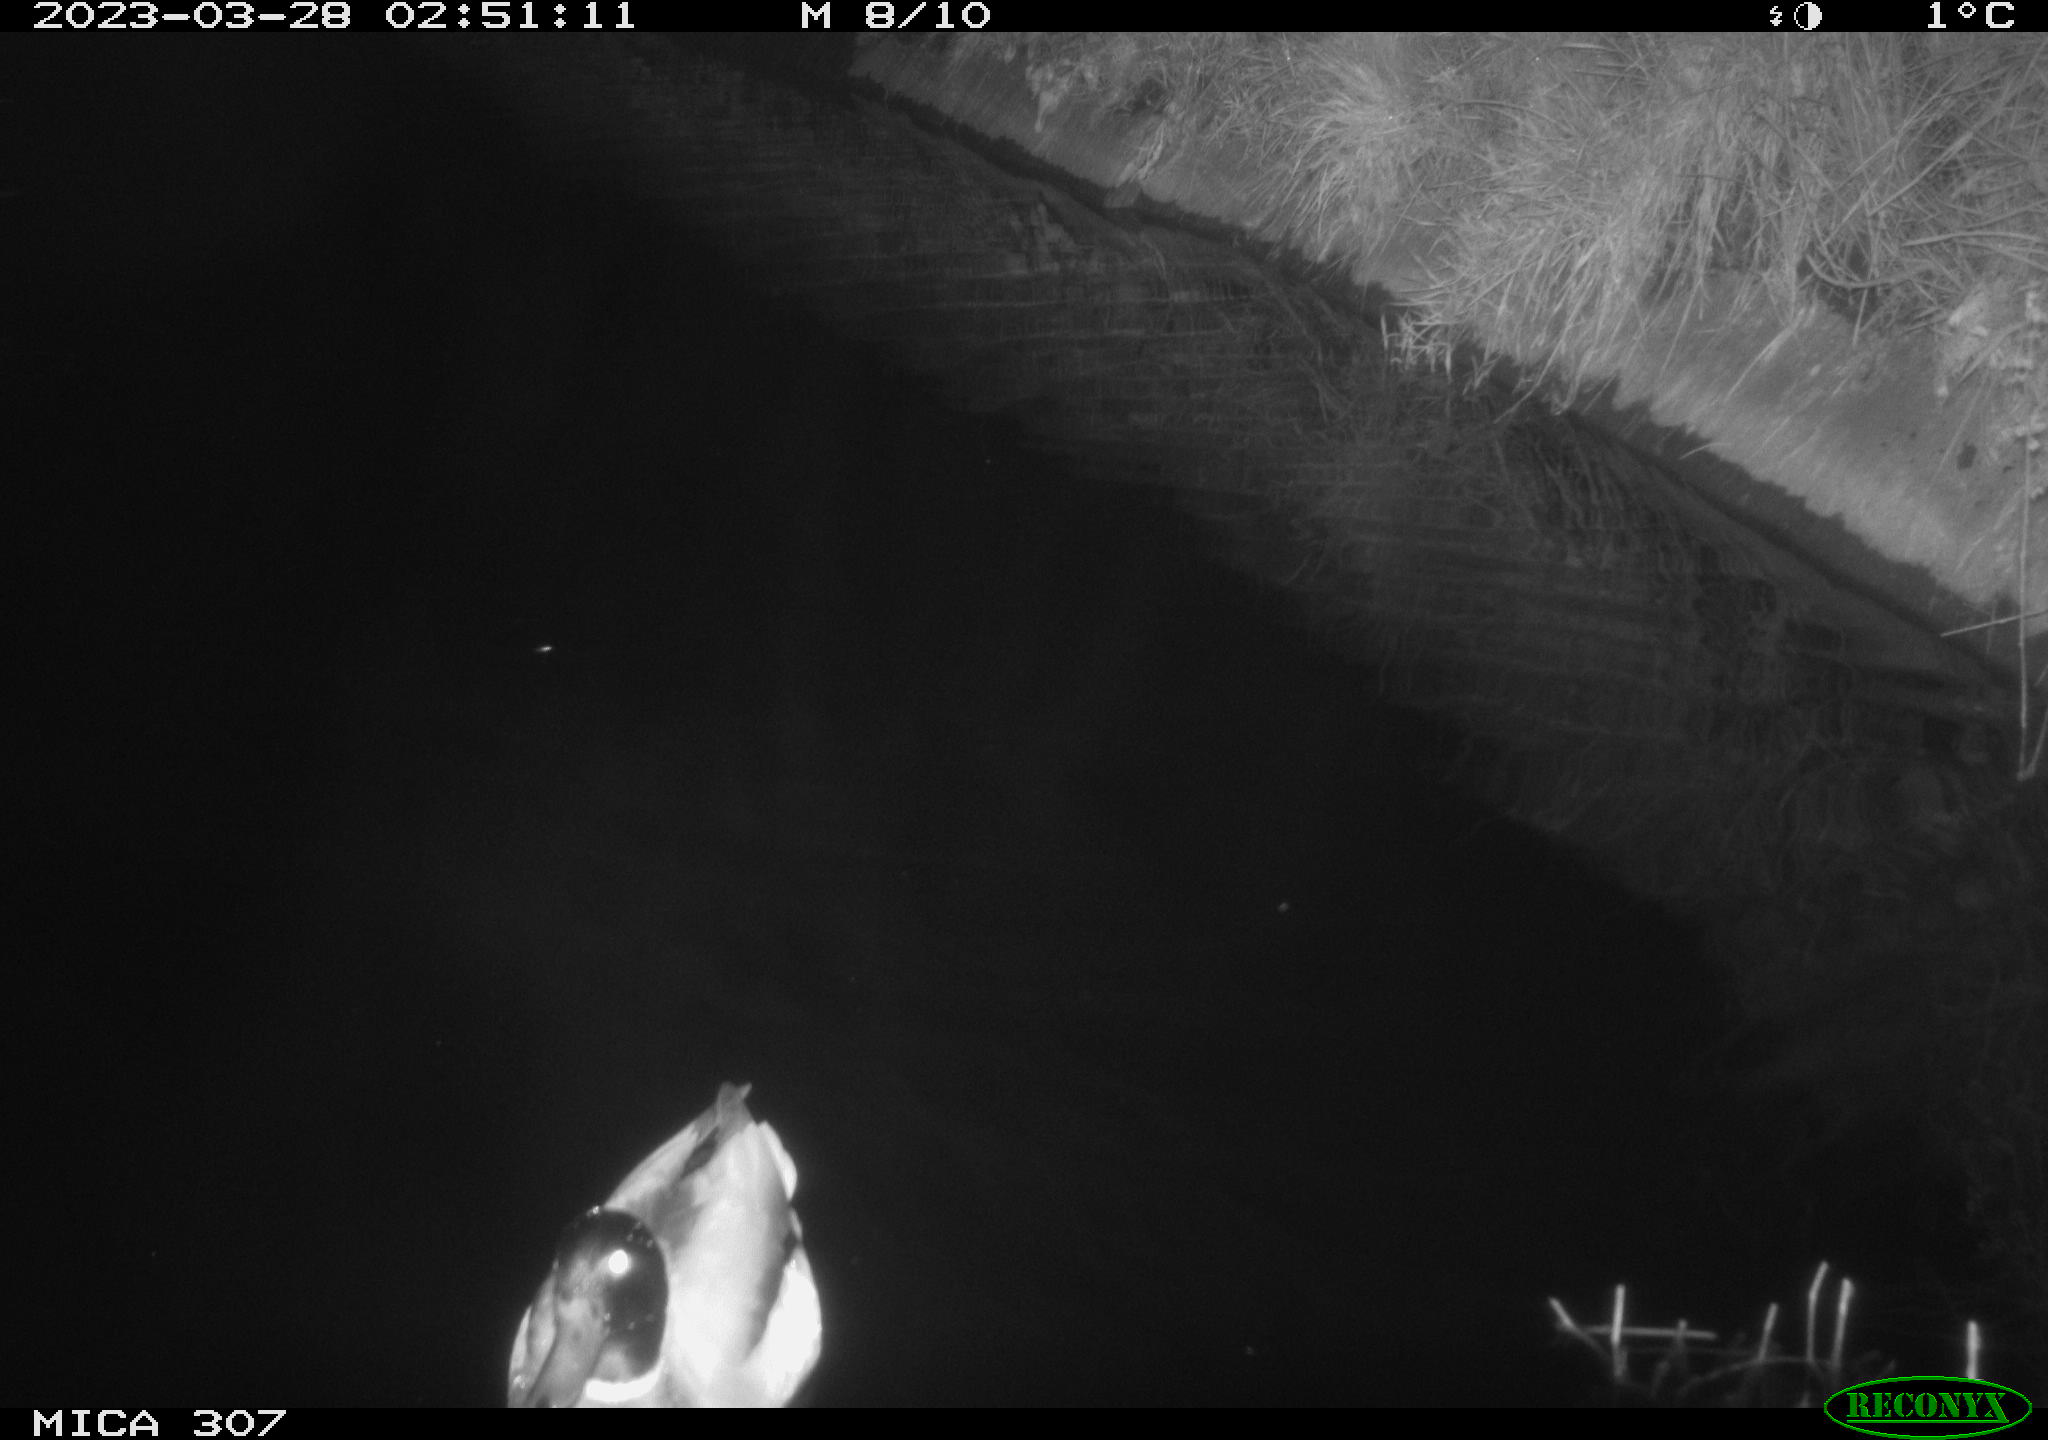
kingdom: Animalia
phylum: Chordata
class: Aves
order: Anseriformes
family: Anatidae
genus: Anas
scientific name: Anas
